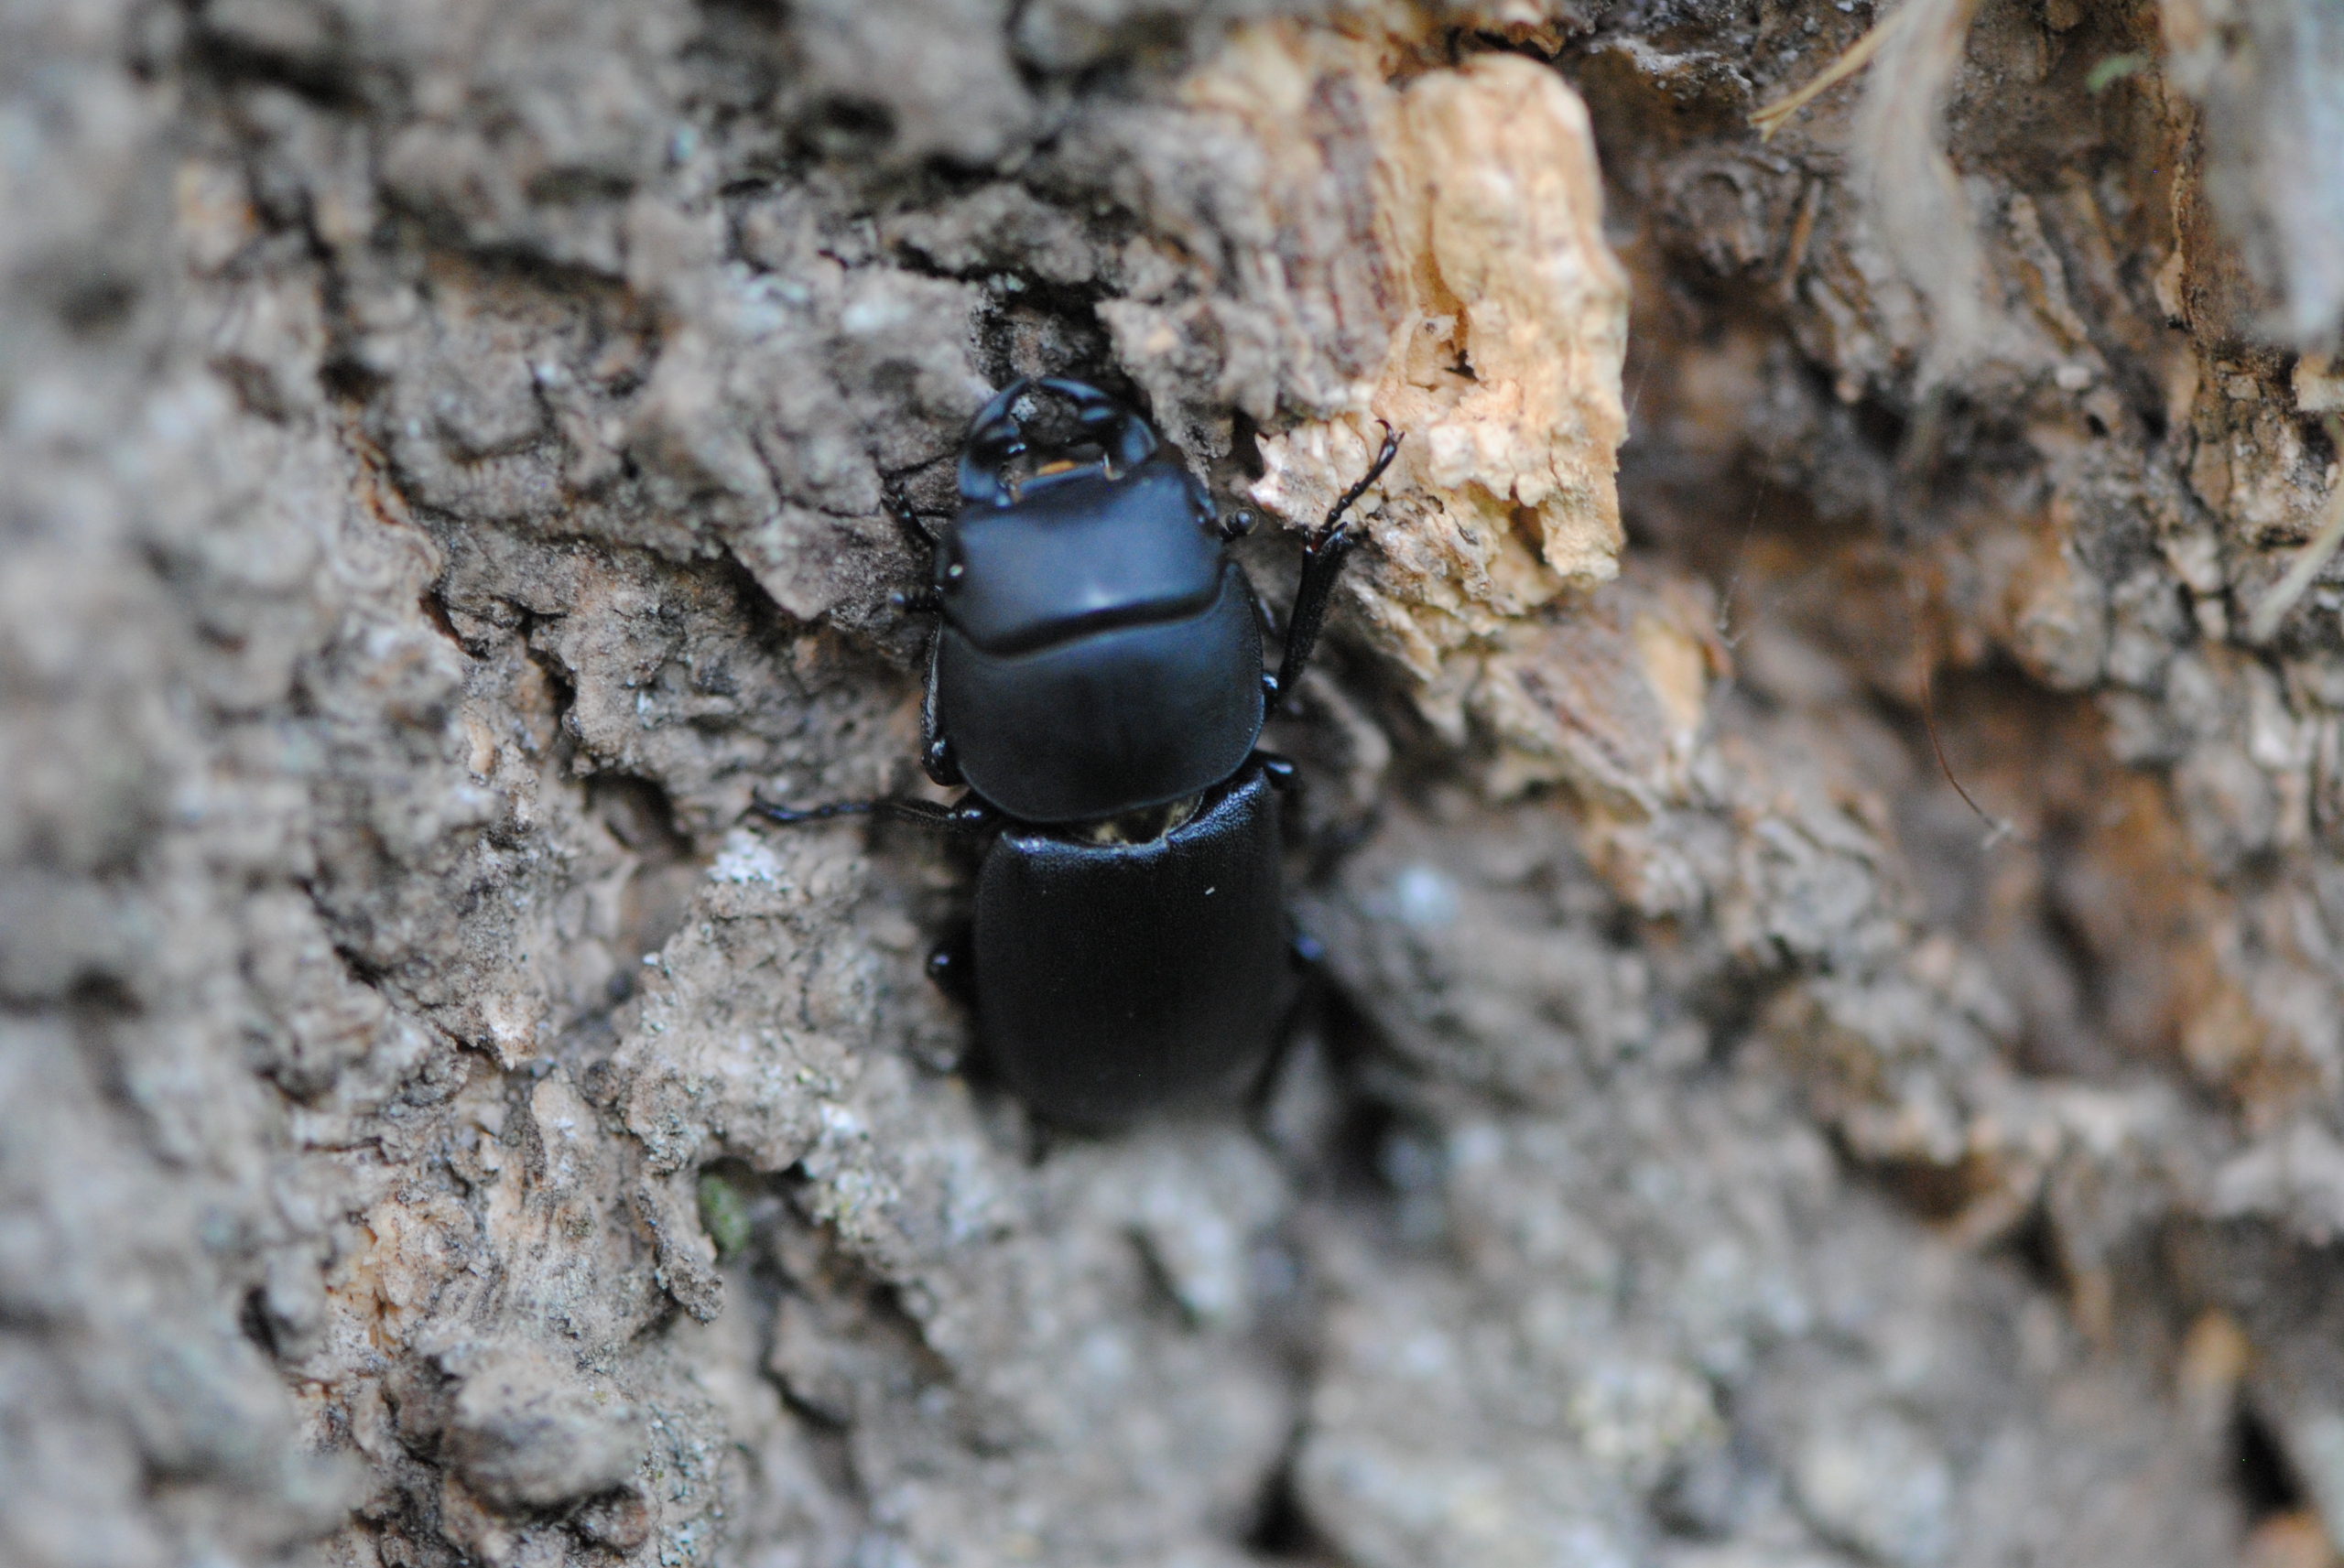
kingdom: Animalia
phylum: Arthropoda
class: Insecta
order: Coleoptera
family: Lucanidae
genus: Dorcus
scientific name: Dorcus parallelipipedus
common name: Bøghjort
